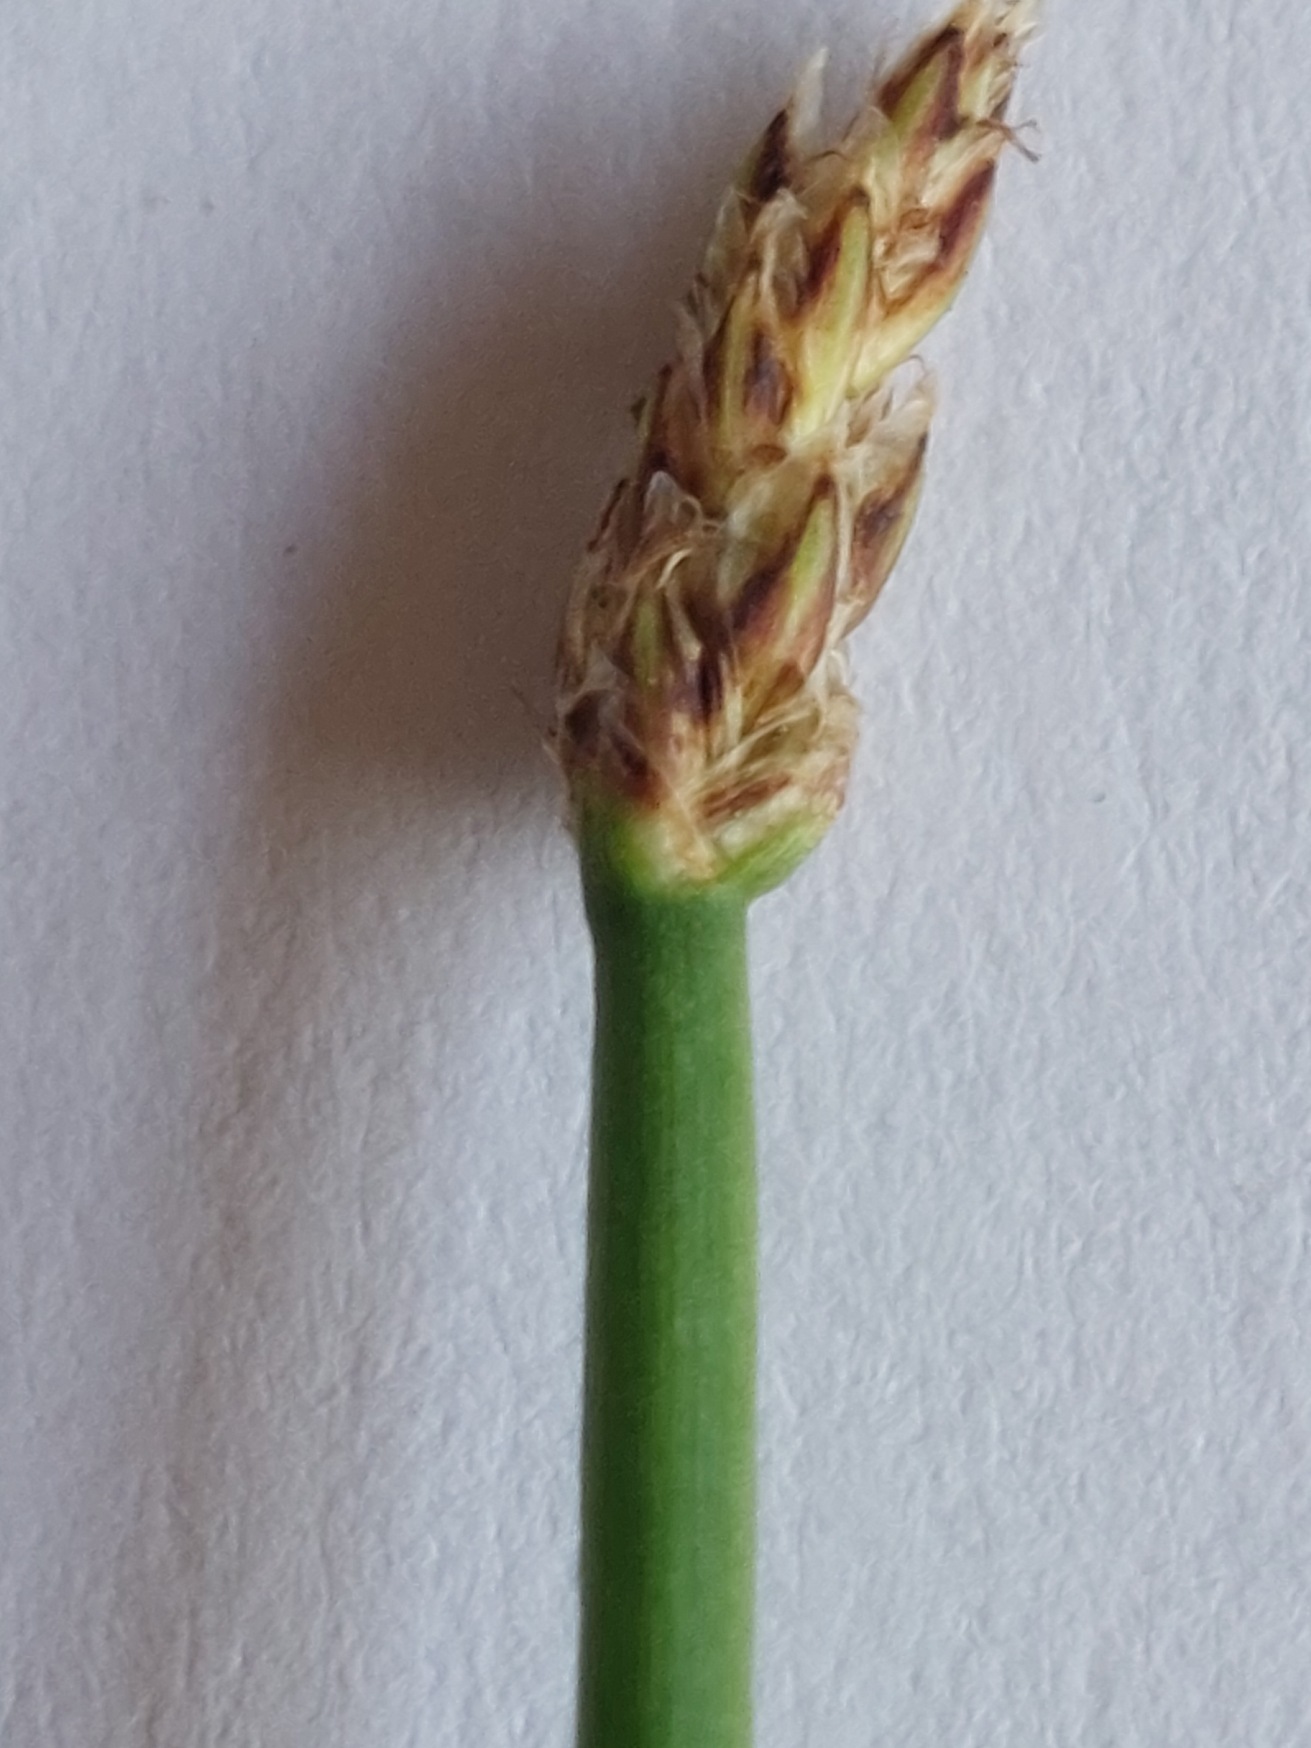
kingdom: Plantae
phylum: Tracheophyta
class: Liliopsida
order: Poales
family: Cyperaceae
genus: Eleocharis
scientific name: Eleocharis palustris
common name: Almindelig sumpstrå
